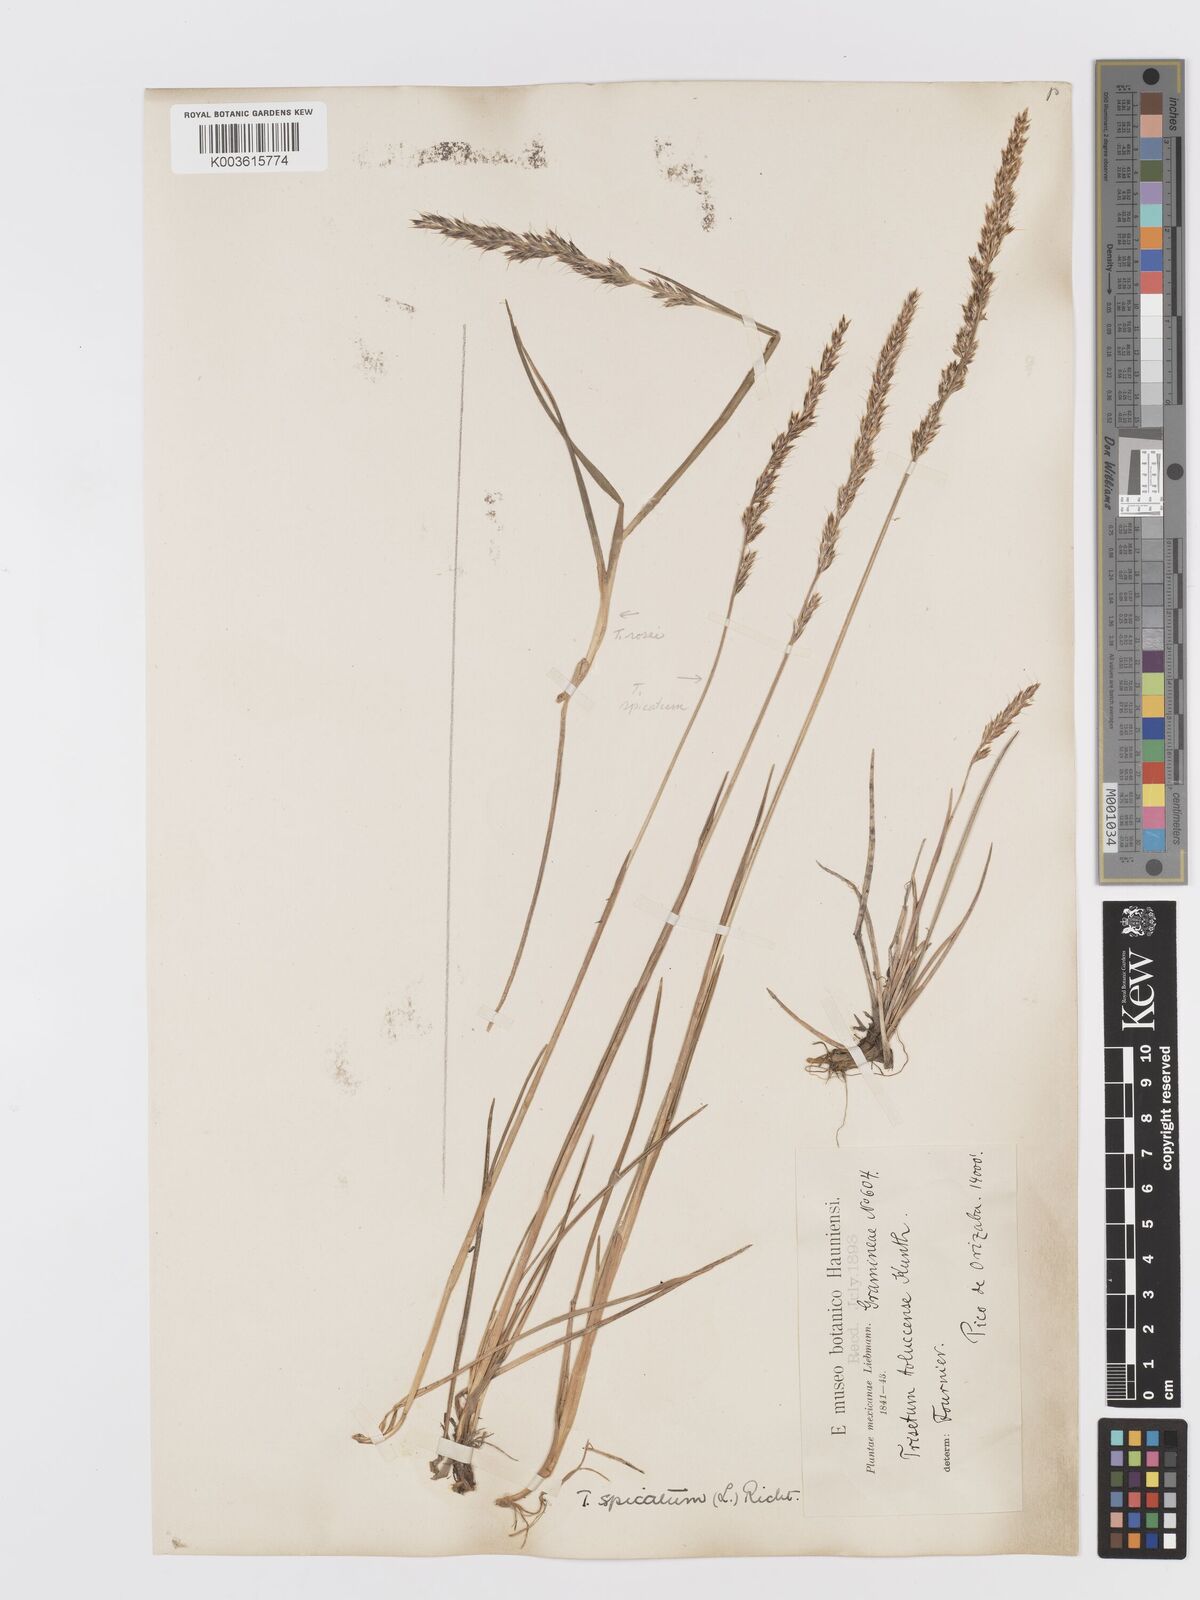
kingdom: Plantae
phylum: Tracheophyta
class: Liliopsida
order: Poales
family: Poaceae
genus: Koeleria
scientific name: Koeleria spicata
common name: Mountain trisetum
